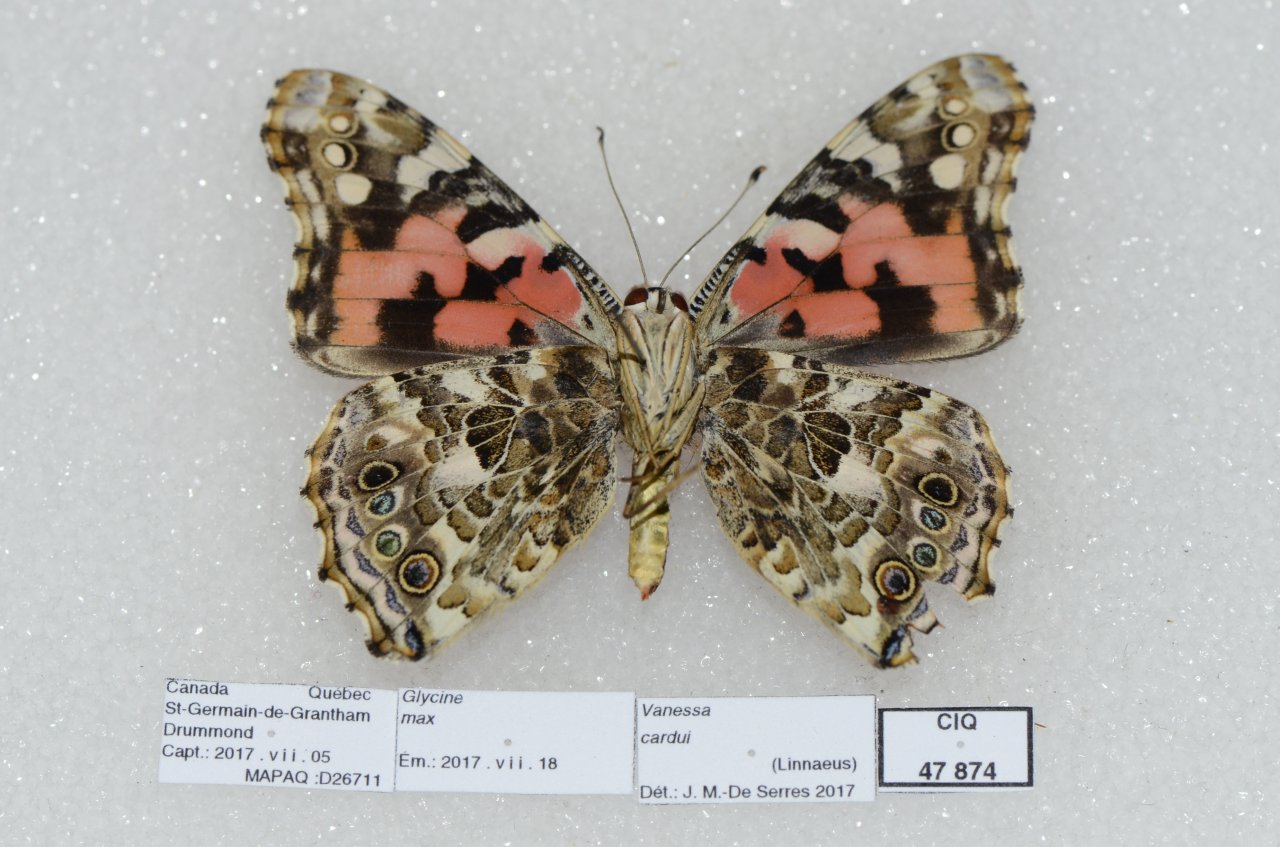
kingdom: Animalia
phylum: Arthropoda
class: Insecta
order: Lepidoptera
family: Nymphalidae
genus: Vanessa
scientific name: Vanessa cardui
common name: Painted Lady
